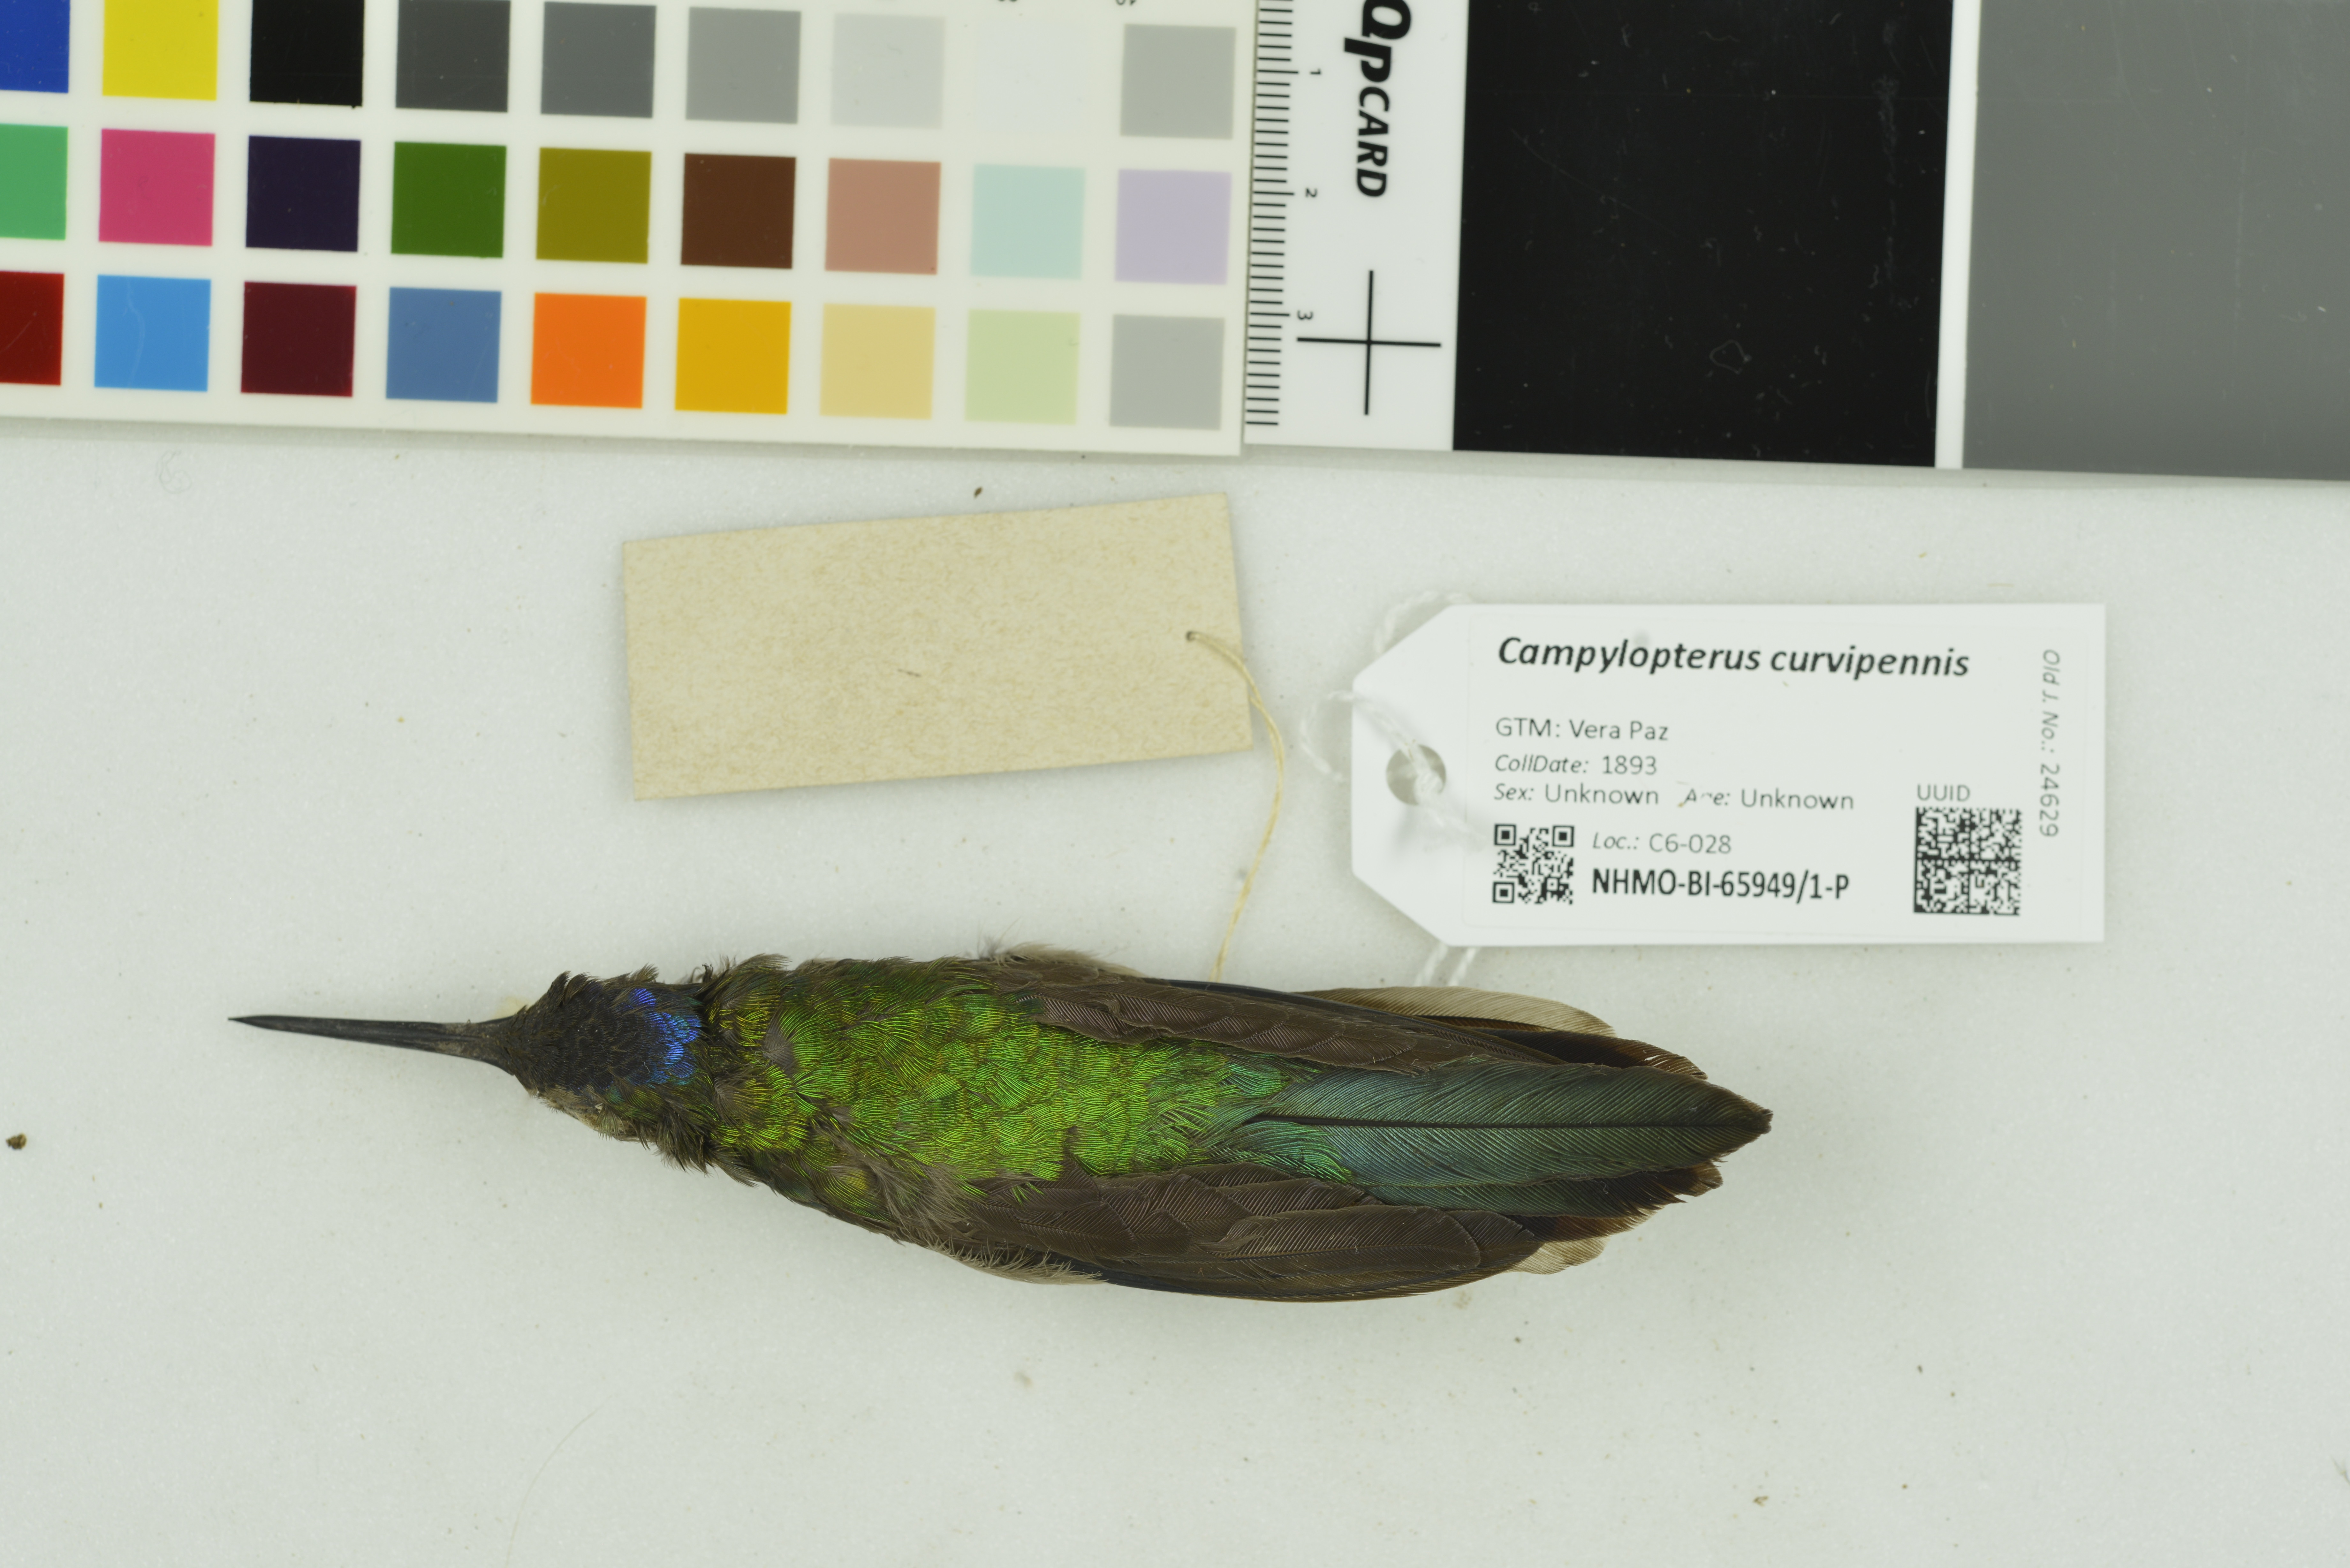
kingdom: Animalia
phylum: Chordata
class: Aves
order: Apodiformes
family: Trochilidae
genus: Pampa
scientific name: Pampa curvipennis
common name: Curve-winged sabrewing
